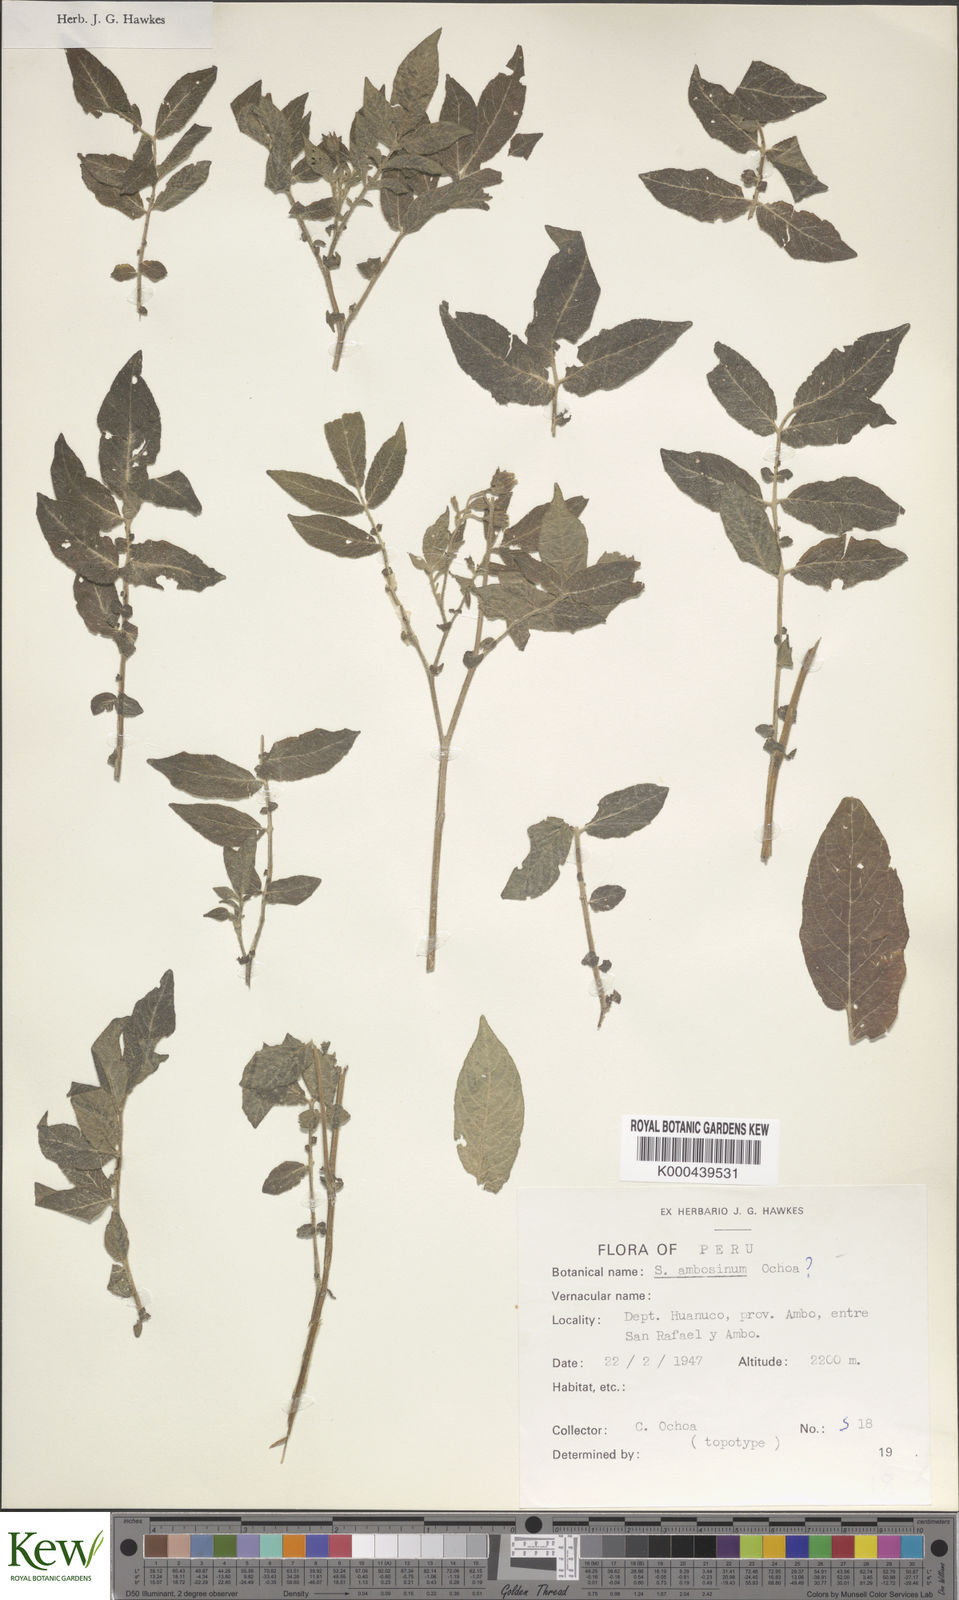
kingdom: Plantae
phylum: Tracheophyta
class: Magnoliopsida
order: Solanales
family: Solanaceae
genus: Solanum
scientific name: Solanum candolleanum
